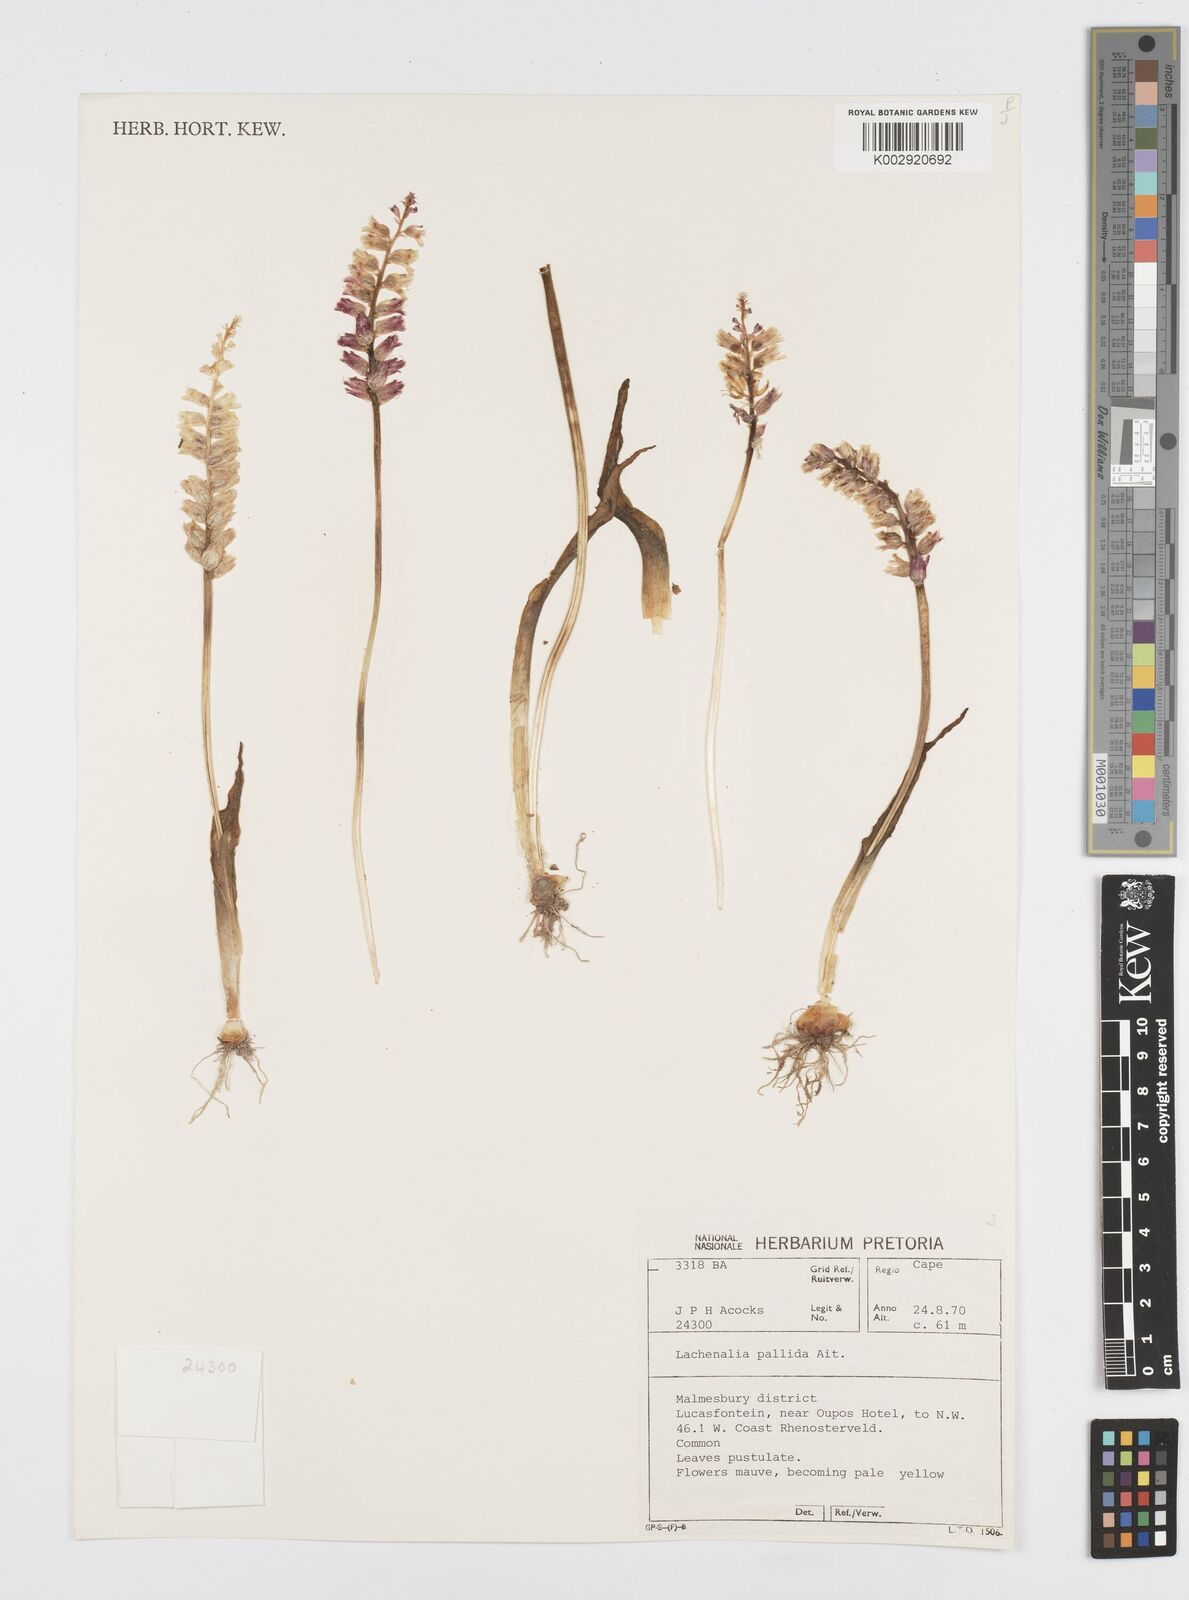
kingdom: Plantae
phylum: Tracheophyta
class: Liliopsida
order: Asparagales
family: Asparagaceae
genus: Lachenalia
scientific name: Lachenalia pallida
